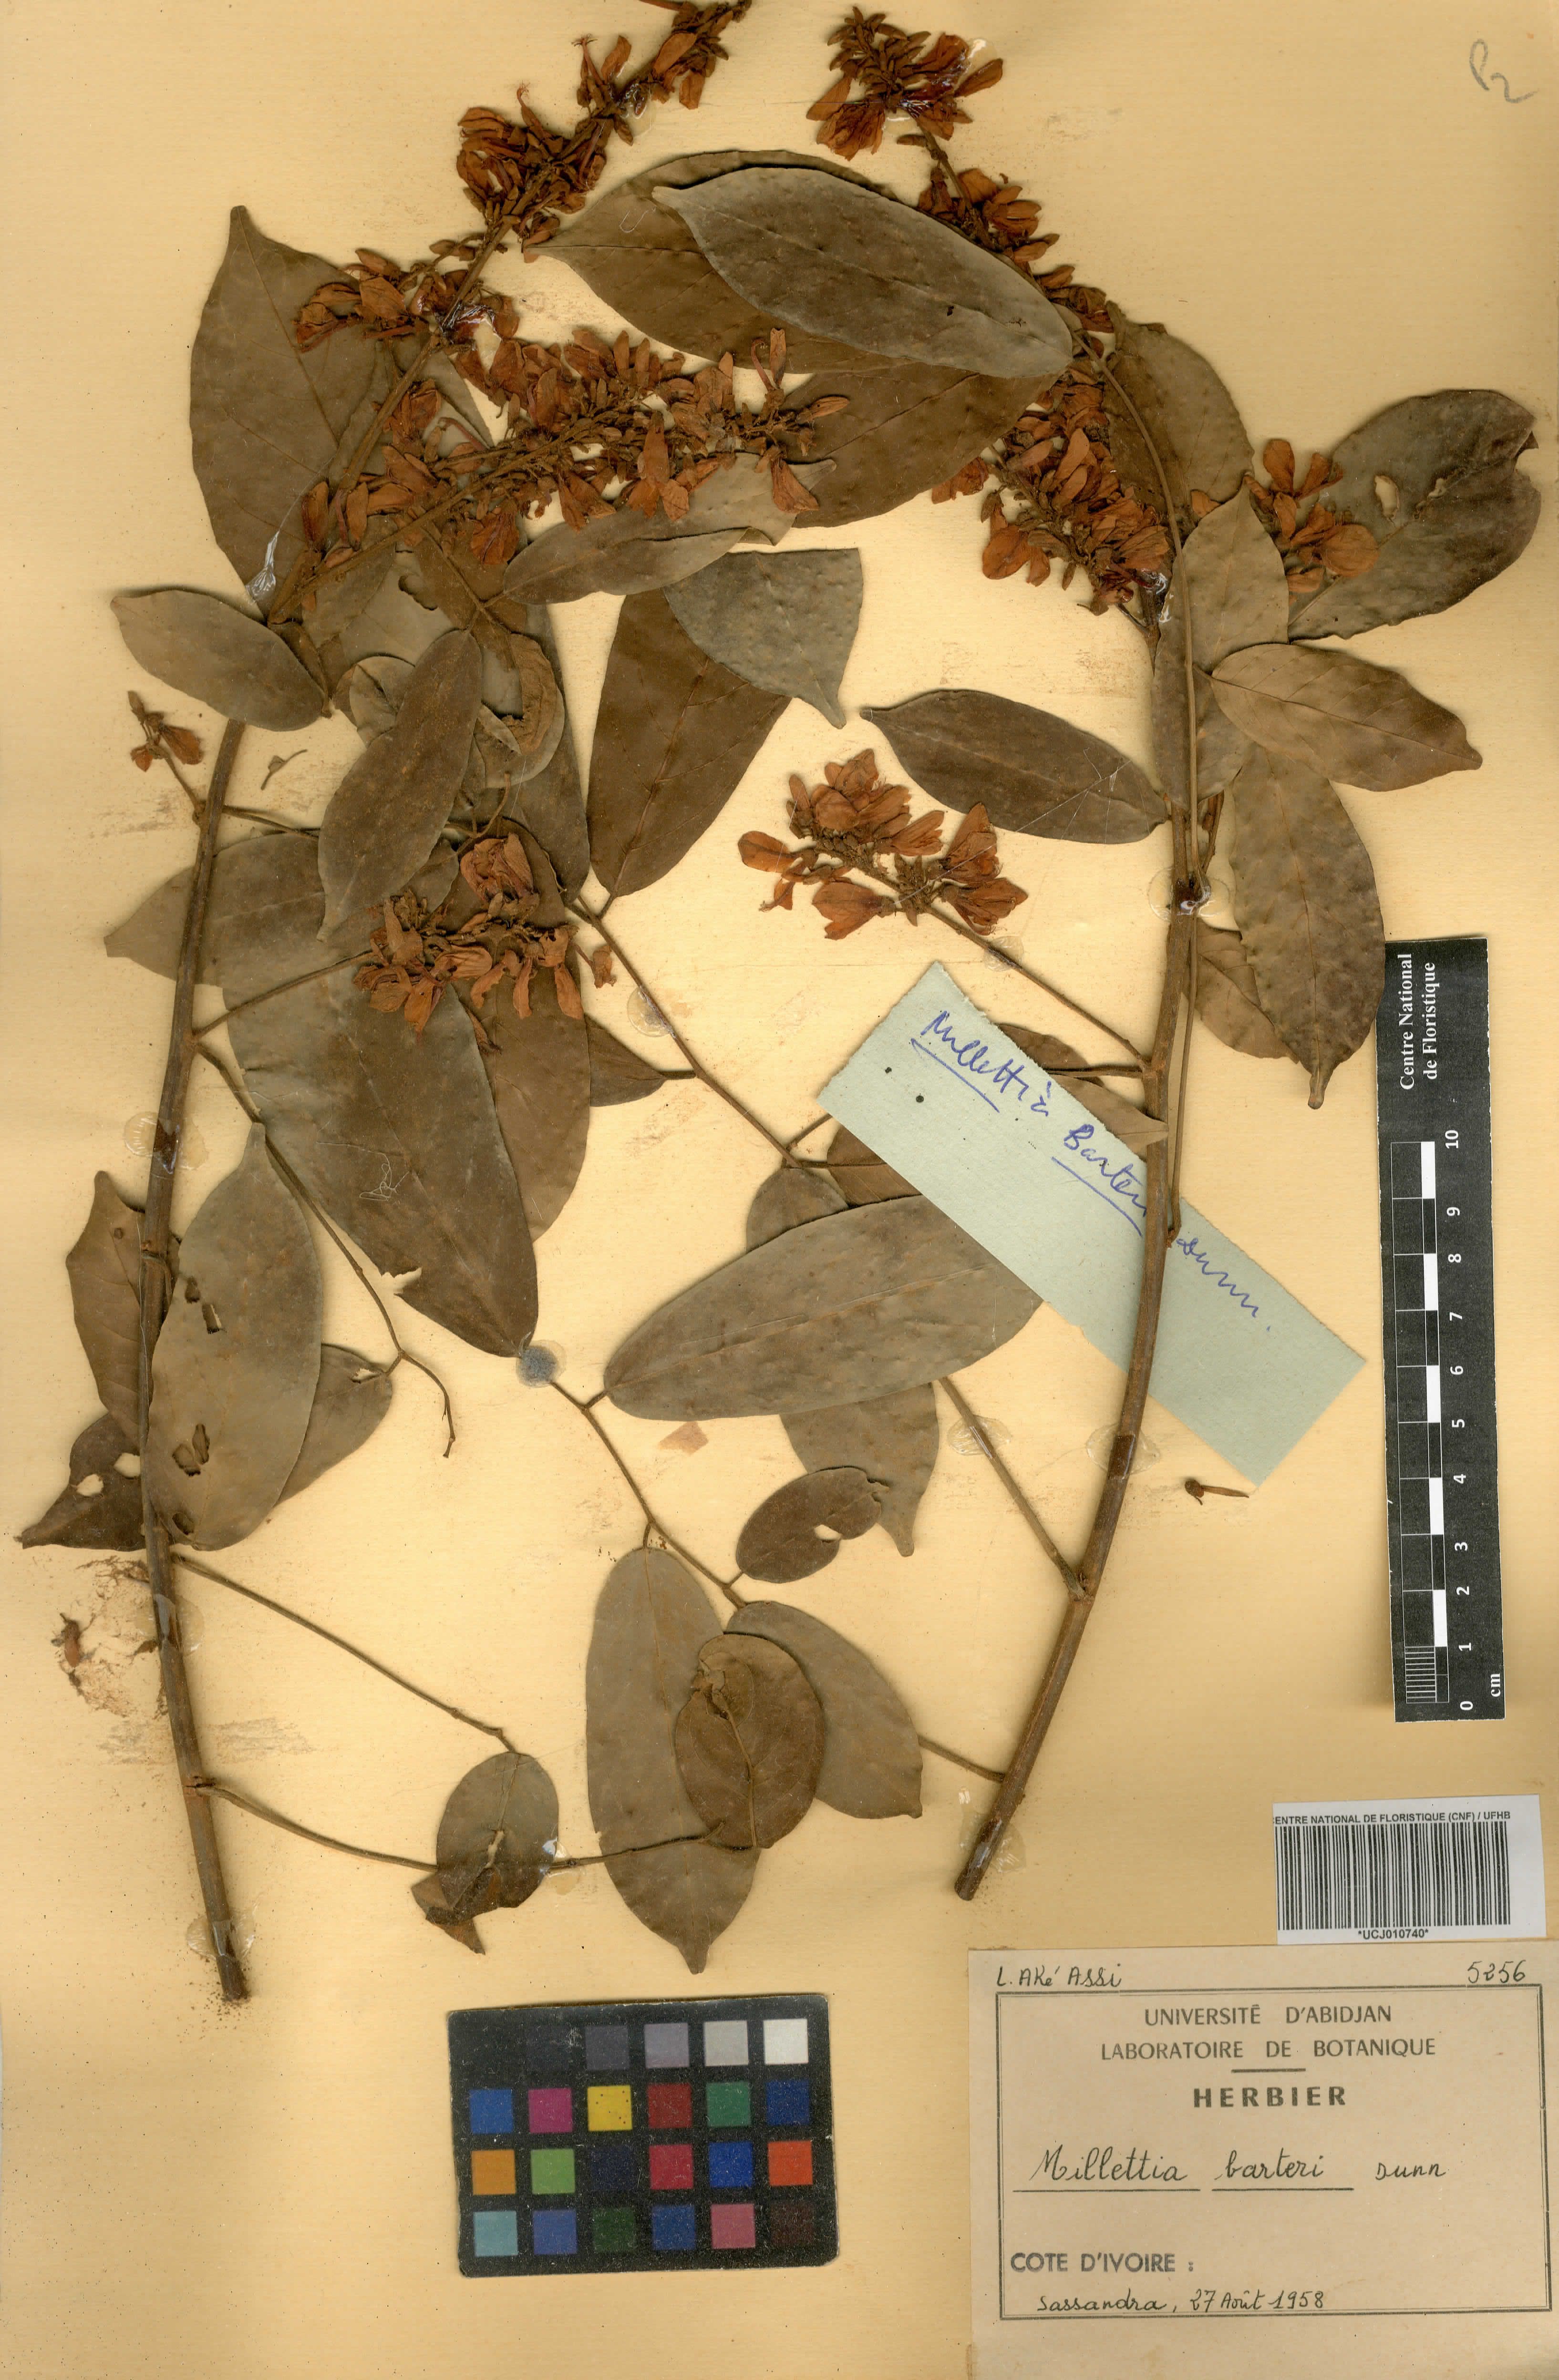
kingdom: Plantae
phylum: Tracheophyta
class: Magnoliopsida
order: Fabales
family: Fabaceae
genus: Millettia
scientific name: Millettia barteri
